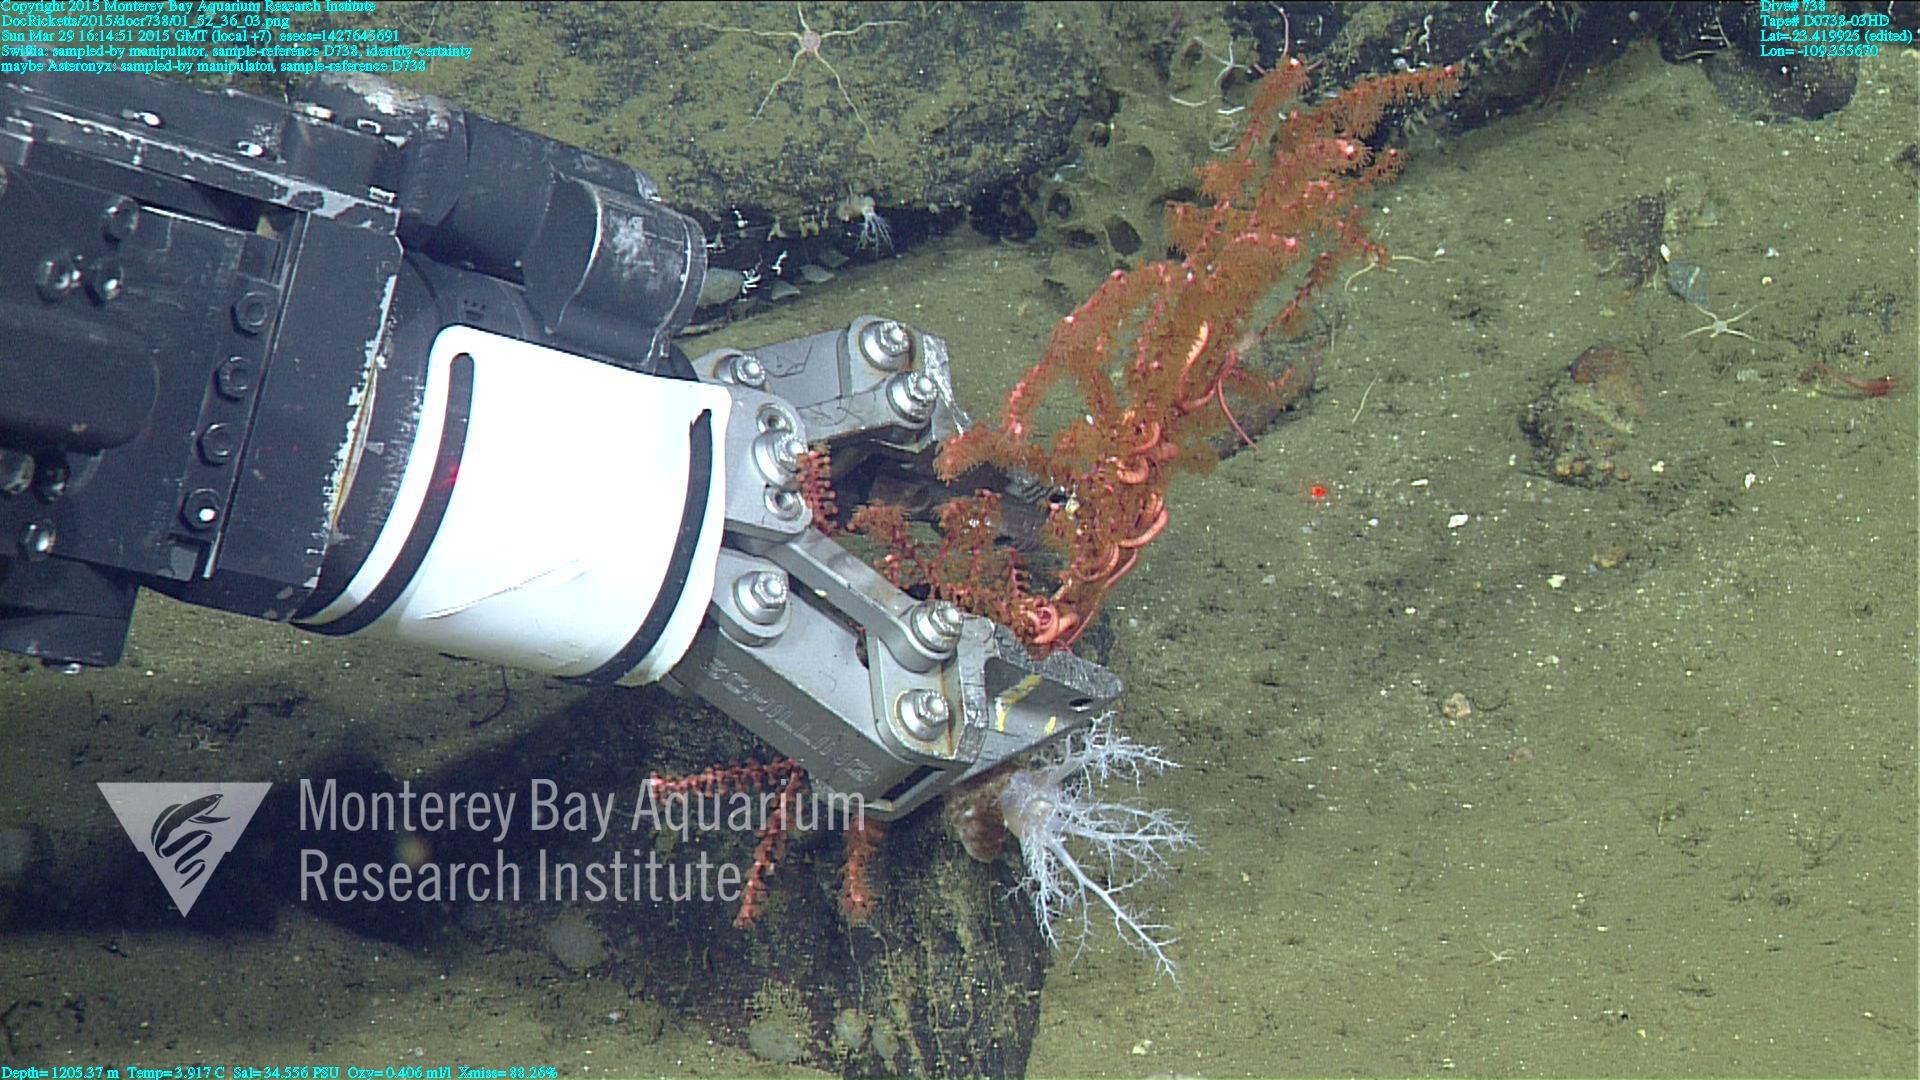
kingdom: Animalia
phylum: Cnidaria
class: Anthozoa
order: Malacalcyonacea
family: Plexauridae
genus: Swiftia
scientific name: Swiftia
